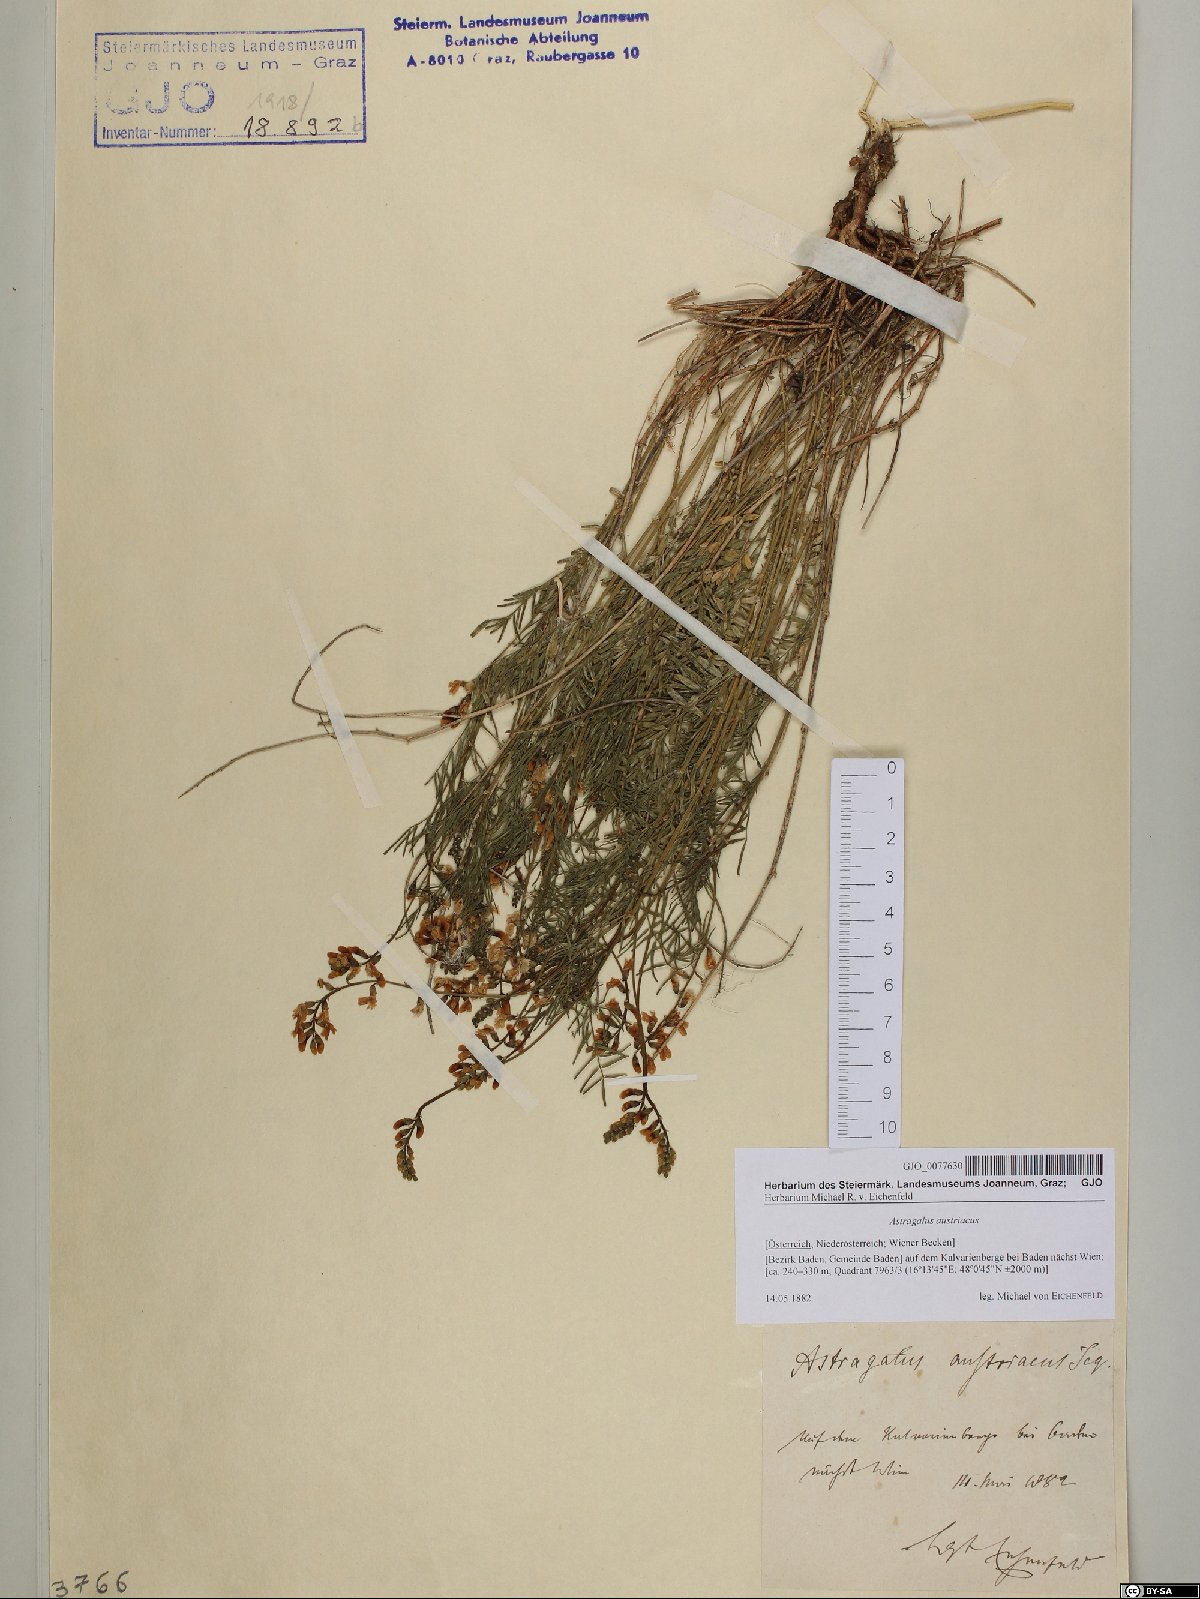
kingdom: Plantae
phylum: Tracheophyta
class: Magnoliopsida
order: Fabales
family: Fabaceae
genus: Astragalus
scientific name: Astragalus austriacus
